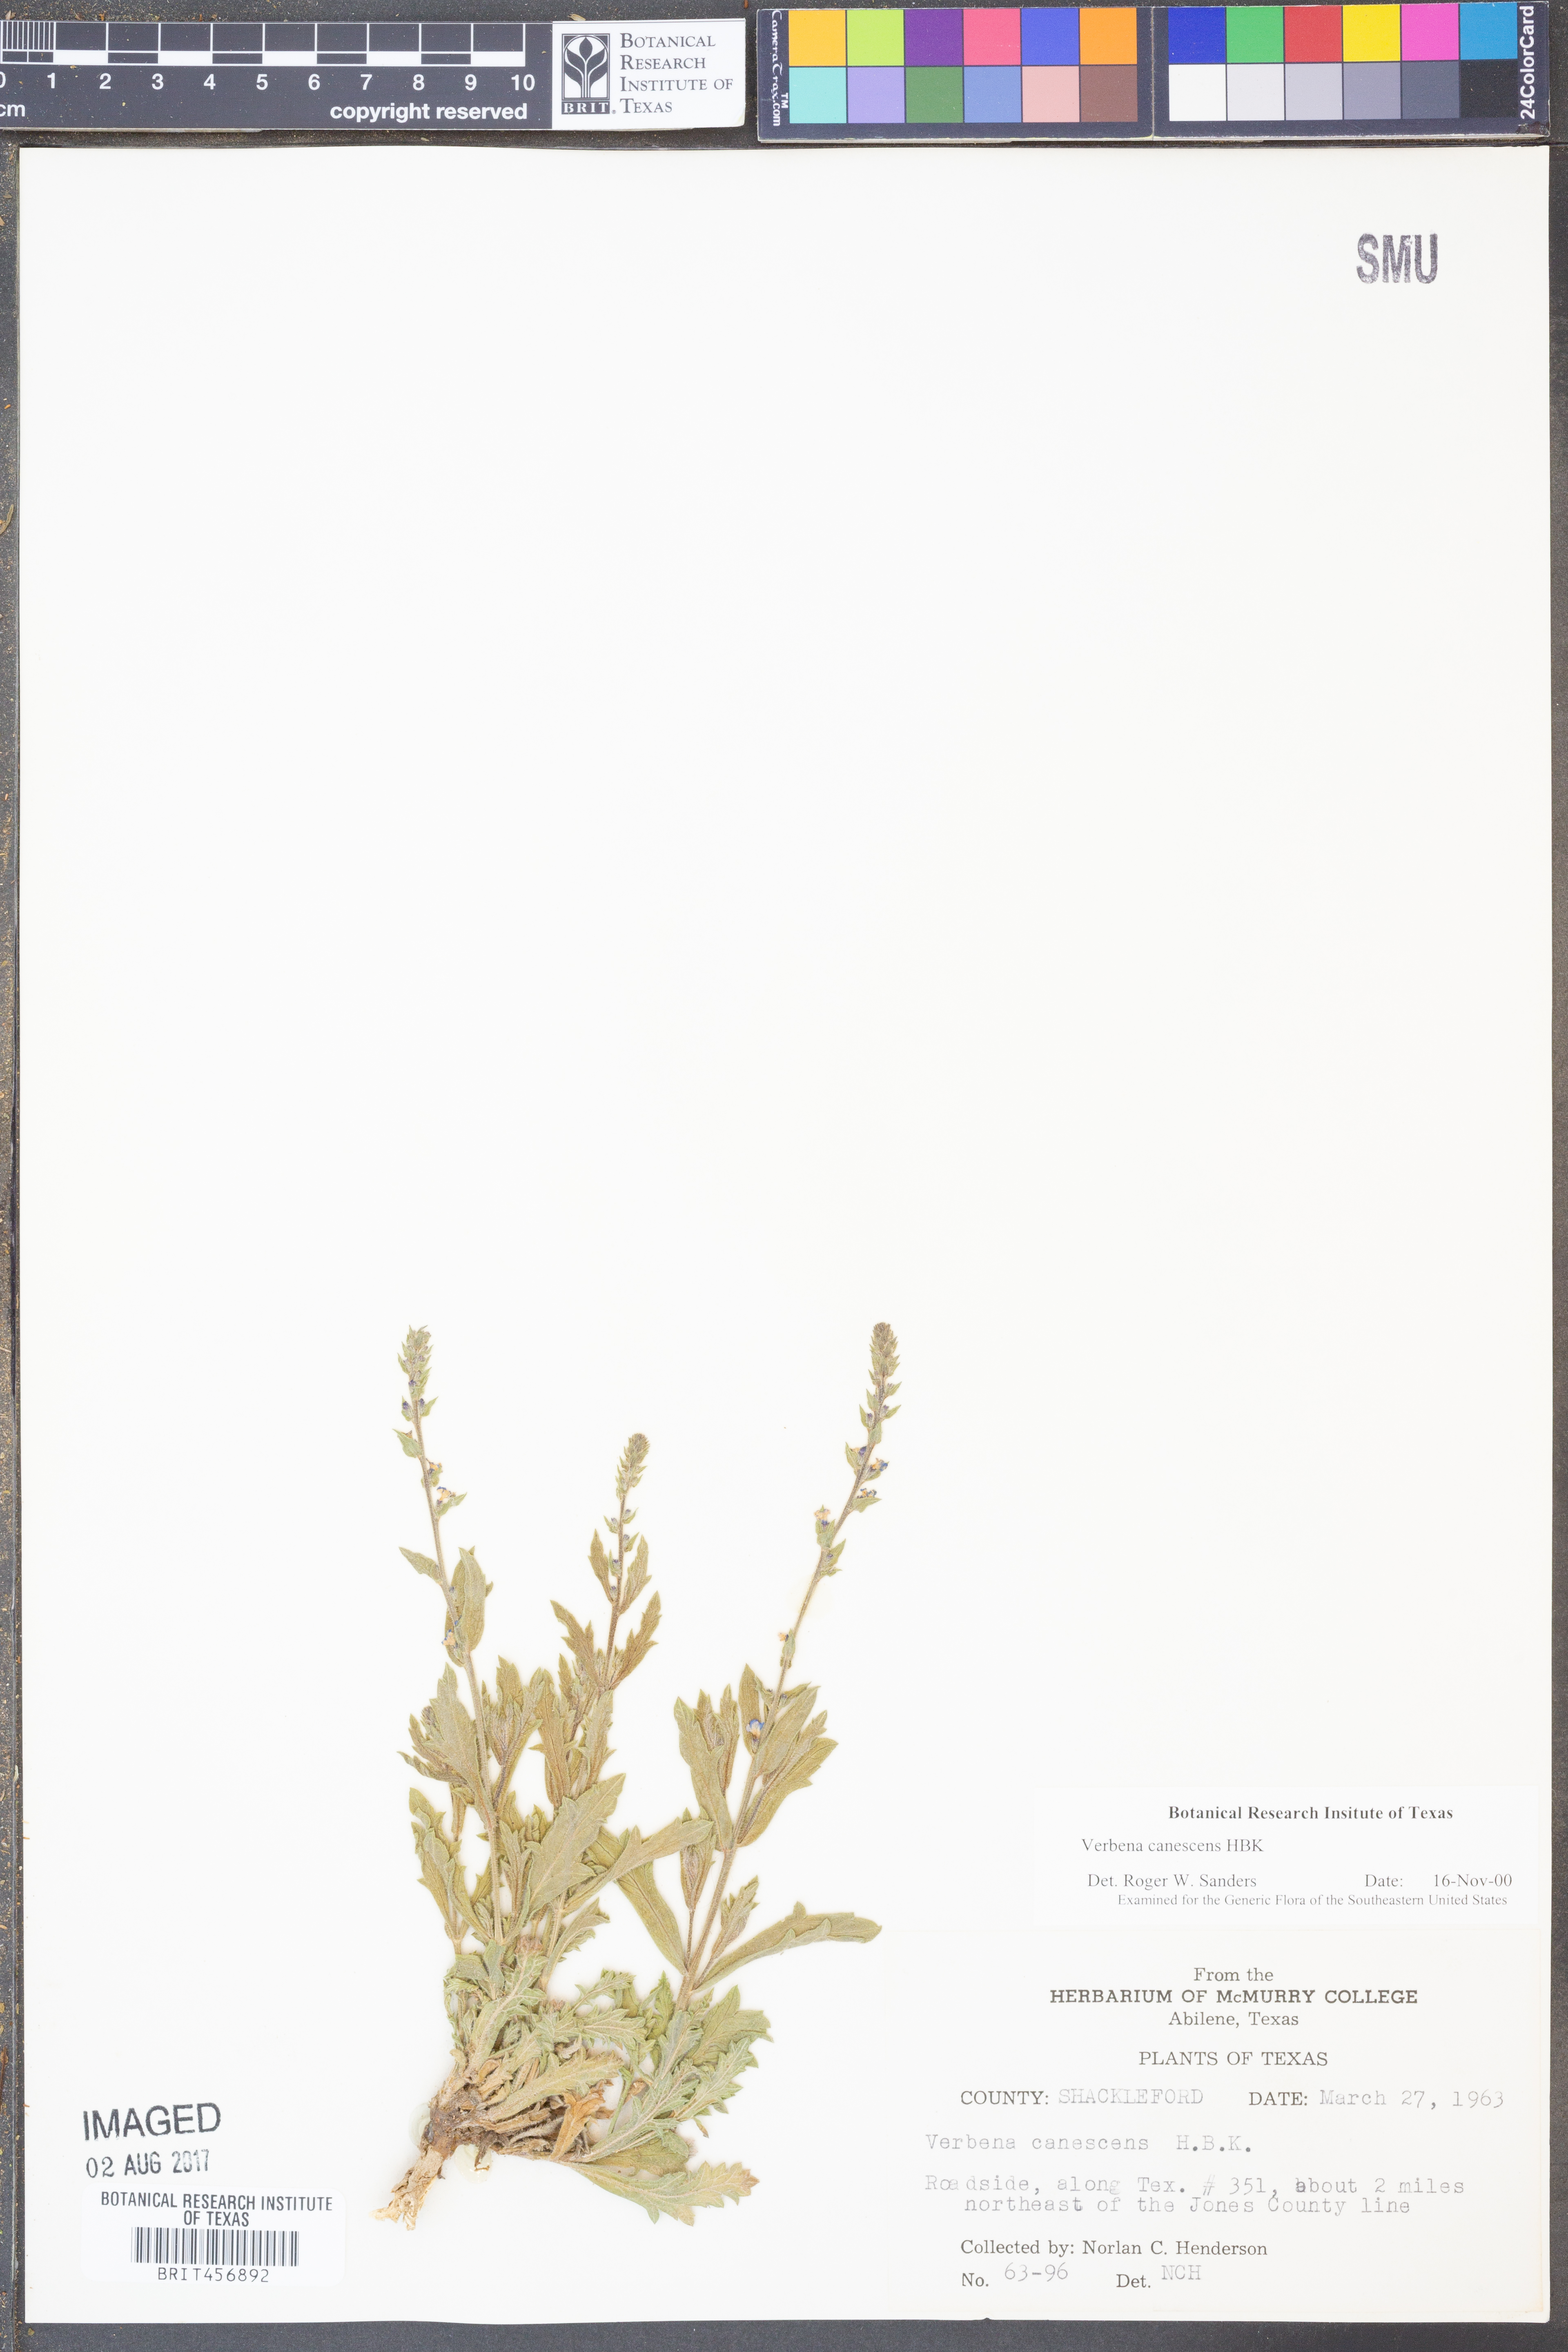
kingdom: Plantae
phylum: Tracheophyta
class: Magnoliopsida
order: Lamiales
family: Verbenaceae
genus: Verbena
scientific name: Verbena canescens
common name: Gray vervain
